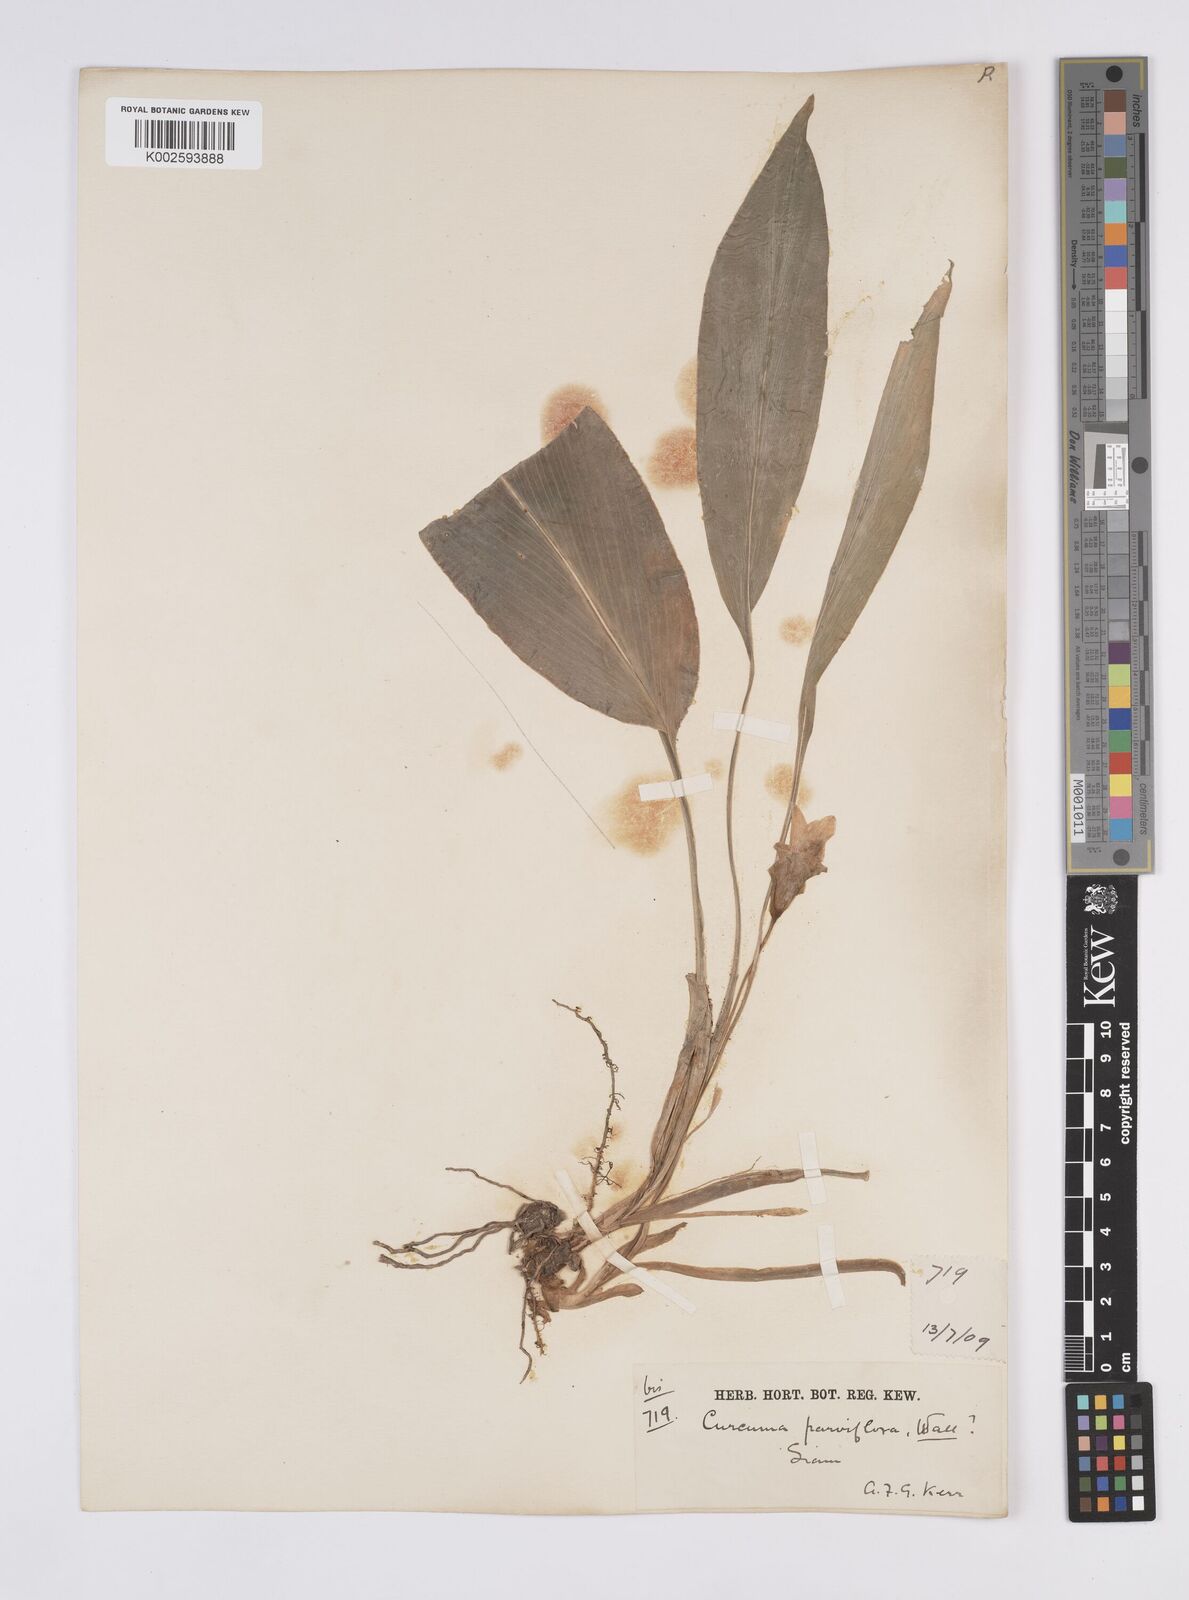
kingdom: Plantae
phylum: Tracheophyta
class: Liliopsida
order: Zingiberales
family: Zingiberaceae
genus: Curcuma
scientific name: Curcuma parviflora
